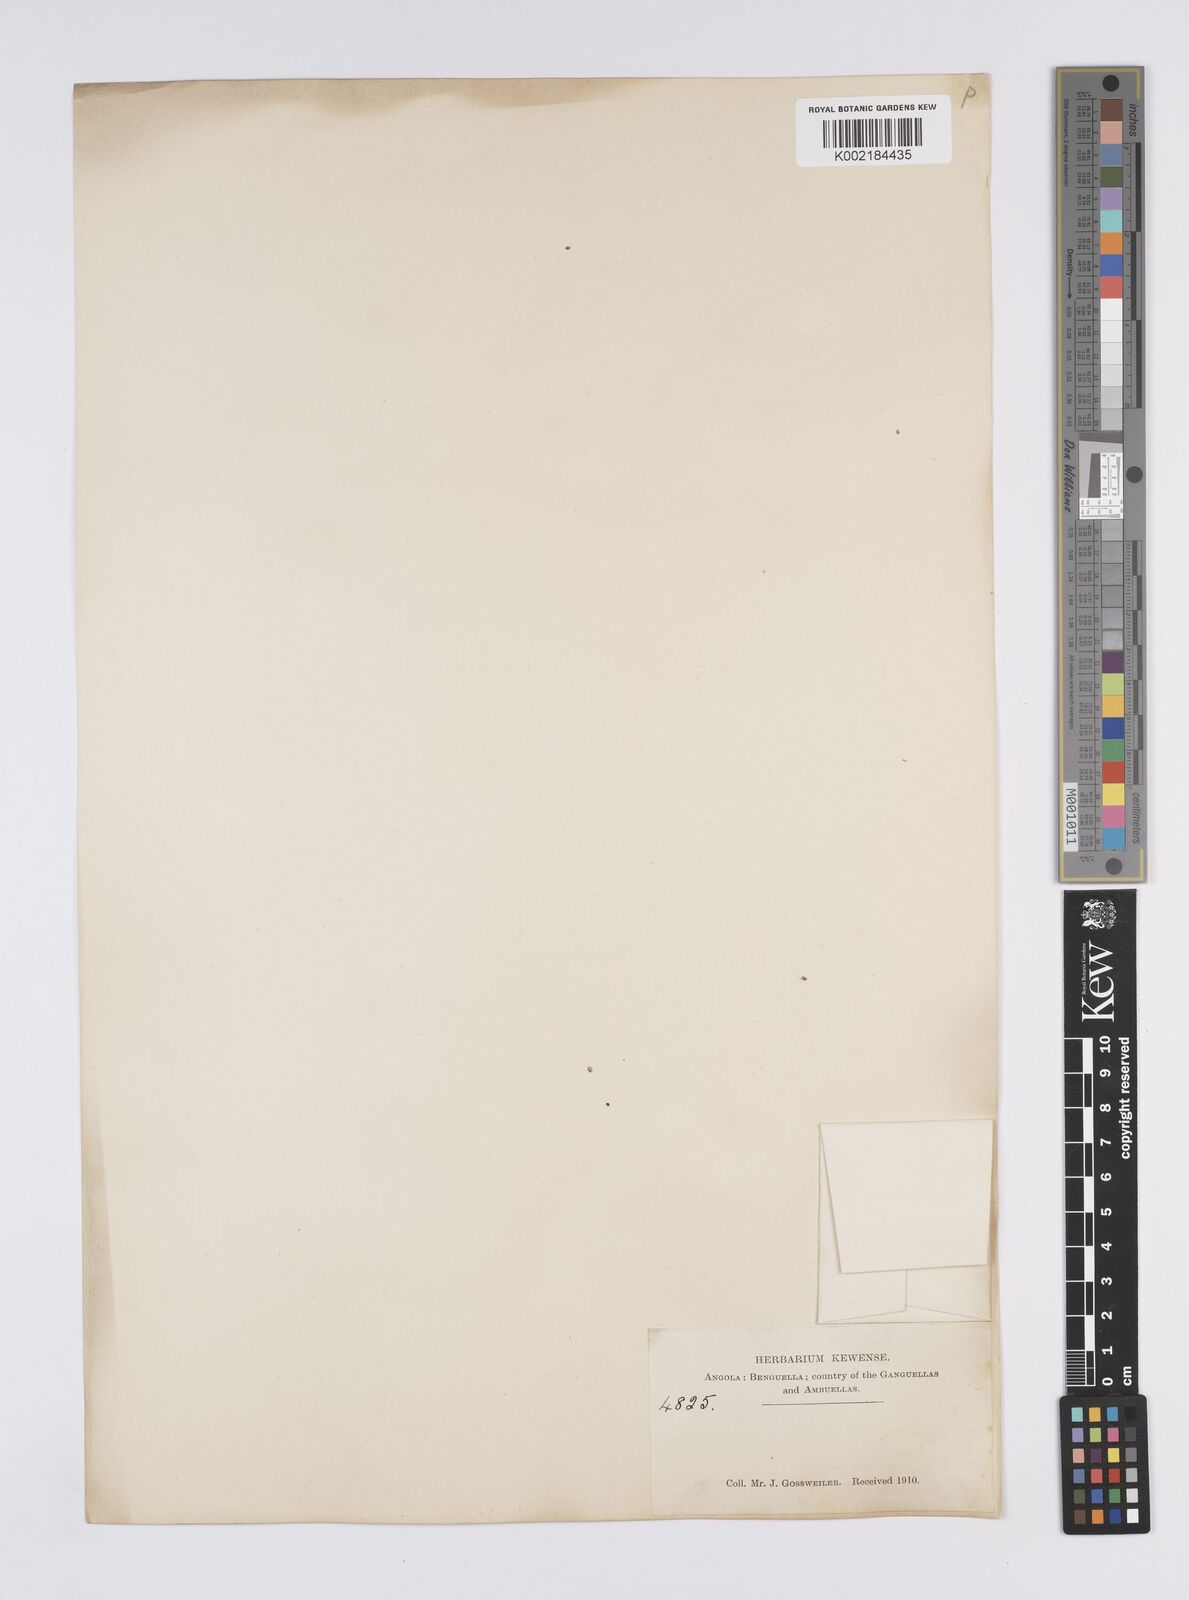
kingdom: Plantae
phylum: Tracheophyta
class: Liliopsida
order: Poales
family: Eriocaulaceae
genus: Eriocaulon
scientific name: Eriocaulon
